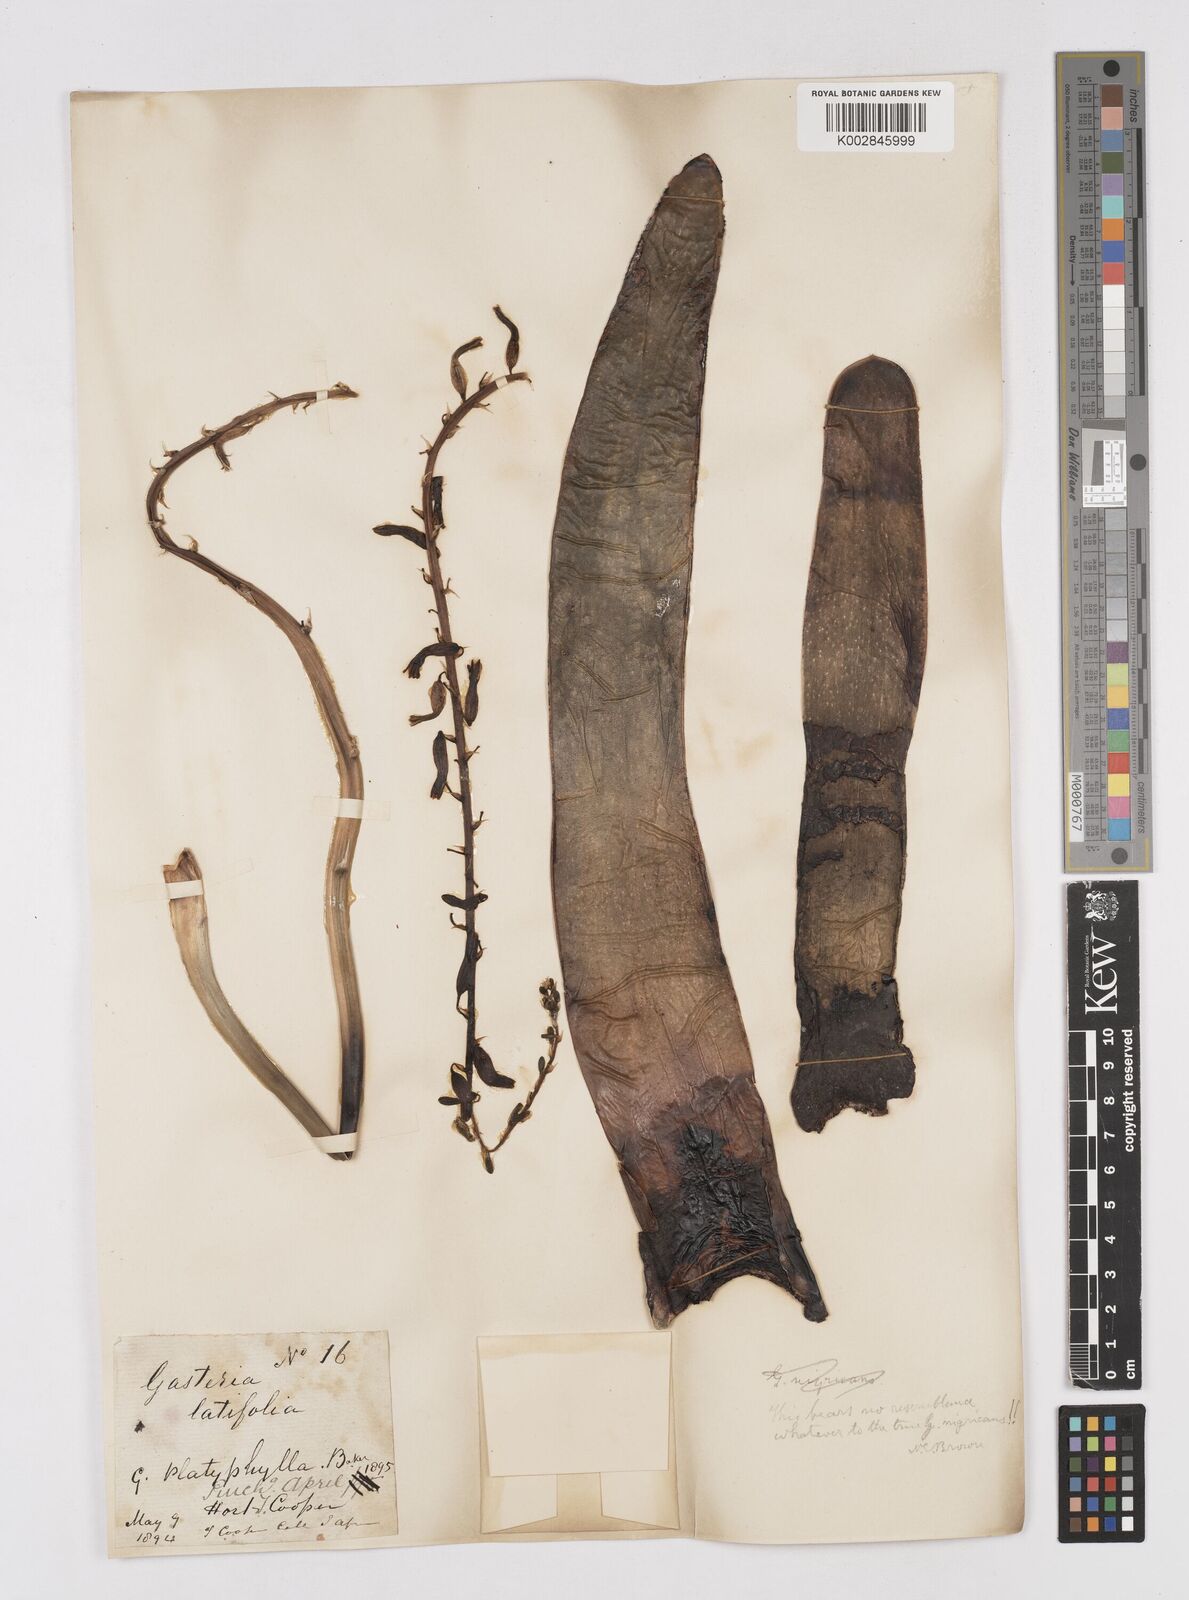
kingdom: Plantae
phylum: Tracheophyta
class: Liliopsida
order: Asparagales
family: Asphodelaceae
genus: Gasteria
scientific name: Gasteria disticha
